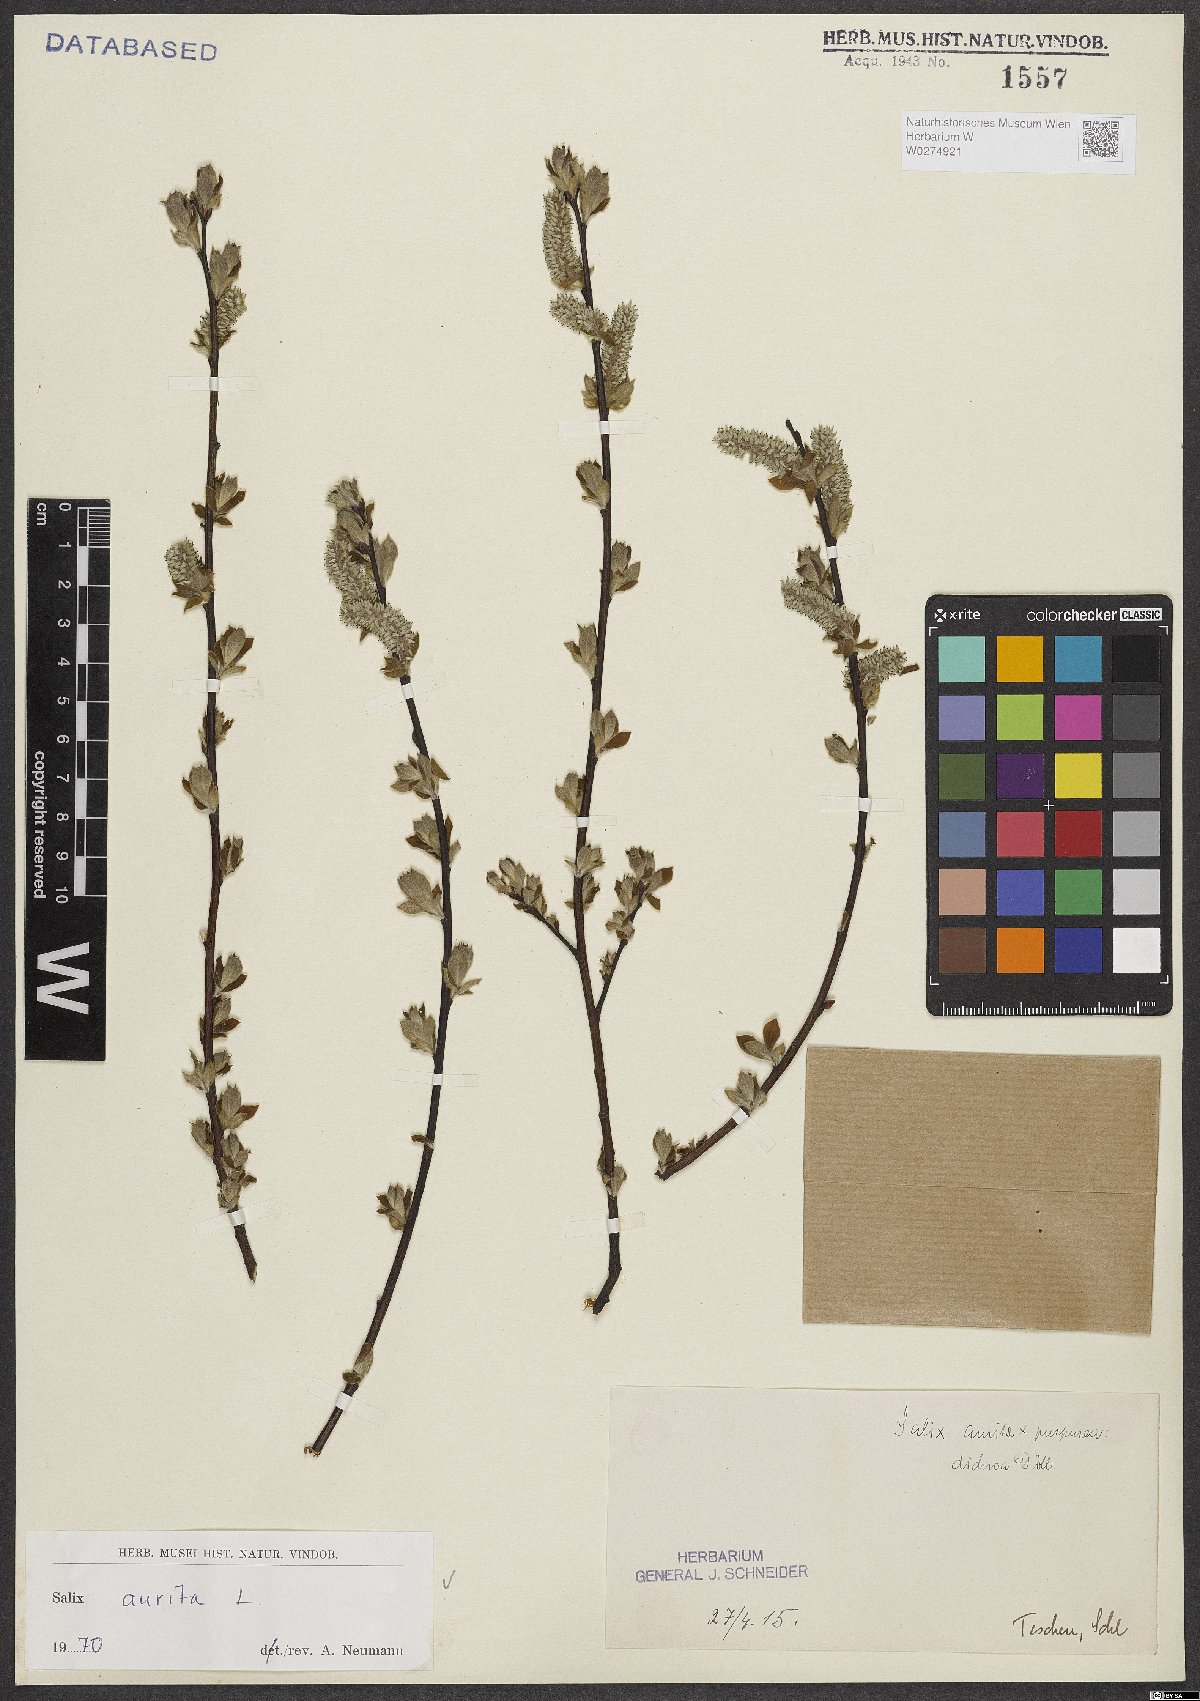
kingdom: Plantae
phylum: Tracheophyta
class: Magnoliopsida
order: Malpighiales
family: Salicaceae
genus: Salix
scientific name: Salix aurita
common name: Eared willow
